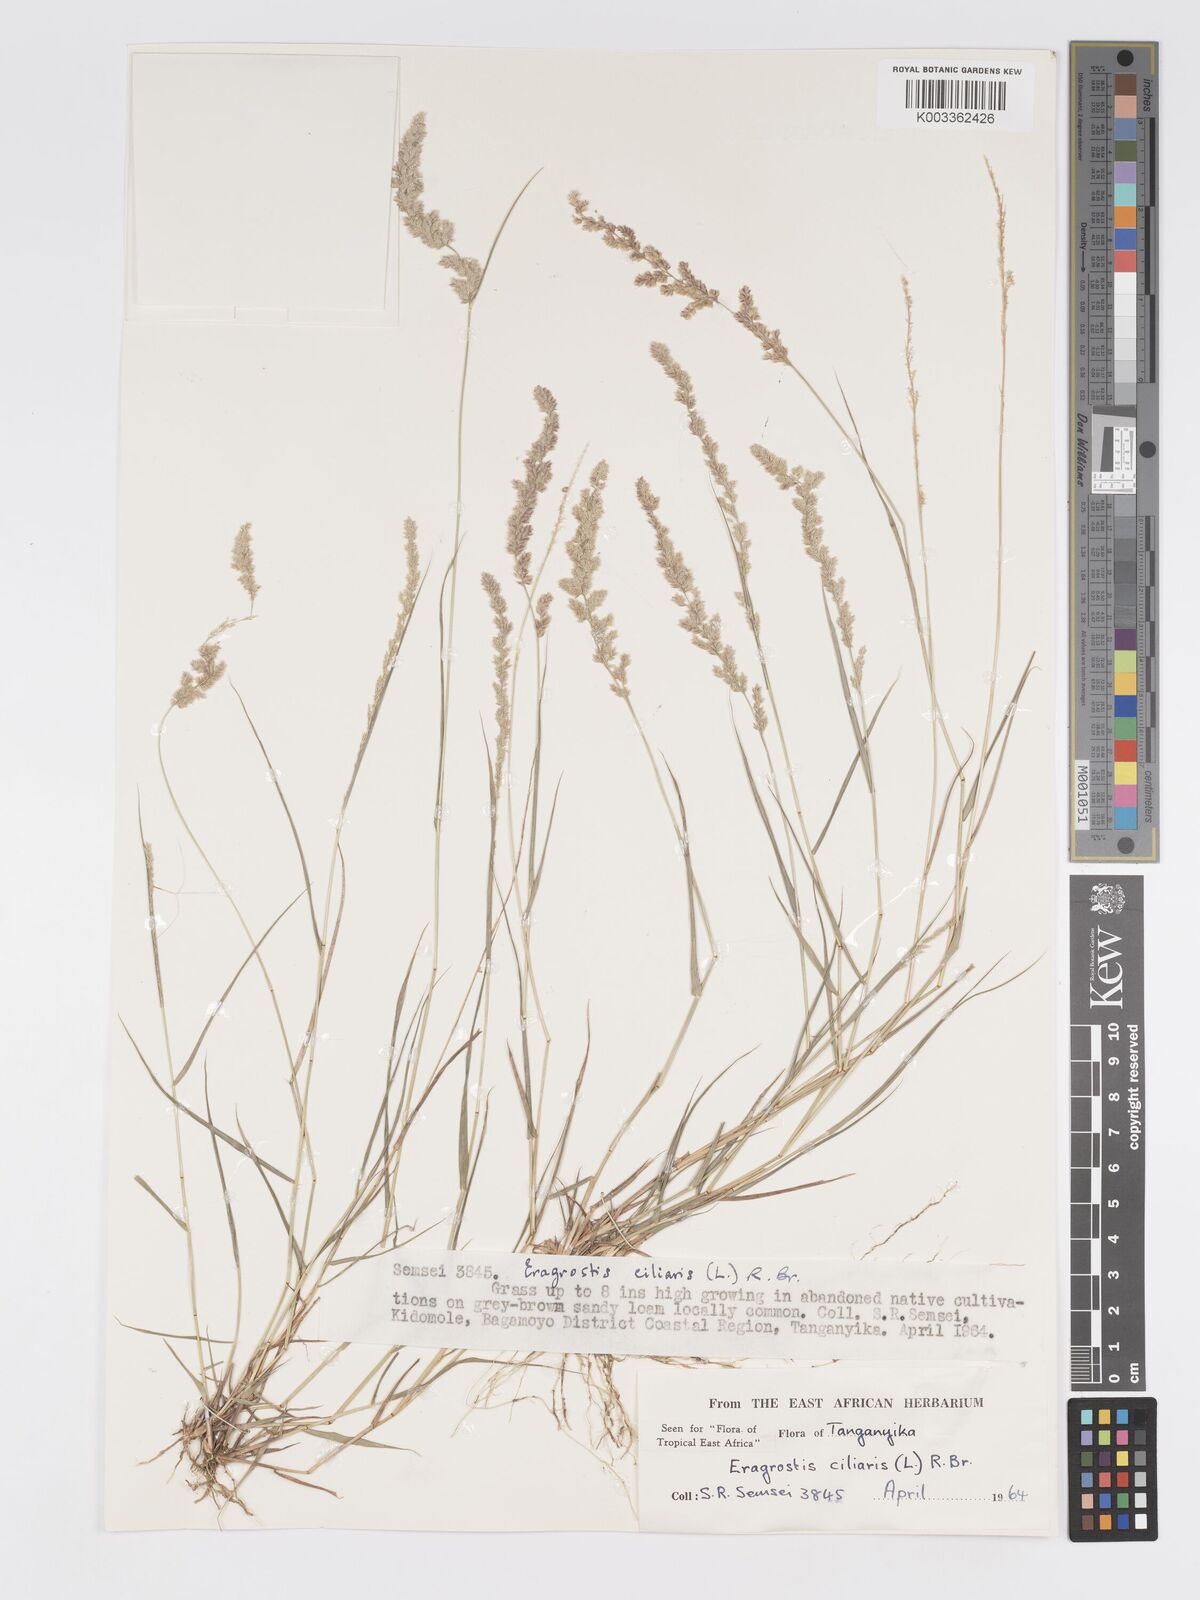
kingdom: Plantae
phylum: Tracheophyta
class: Liliopsida
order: Poales
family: Poaceae
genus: Eragrostis
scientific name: Eragrostis ciliaris
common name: Gophertail lovegrass
